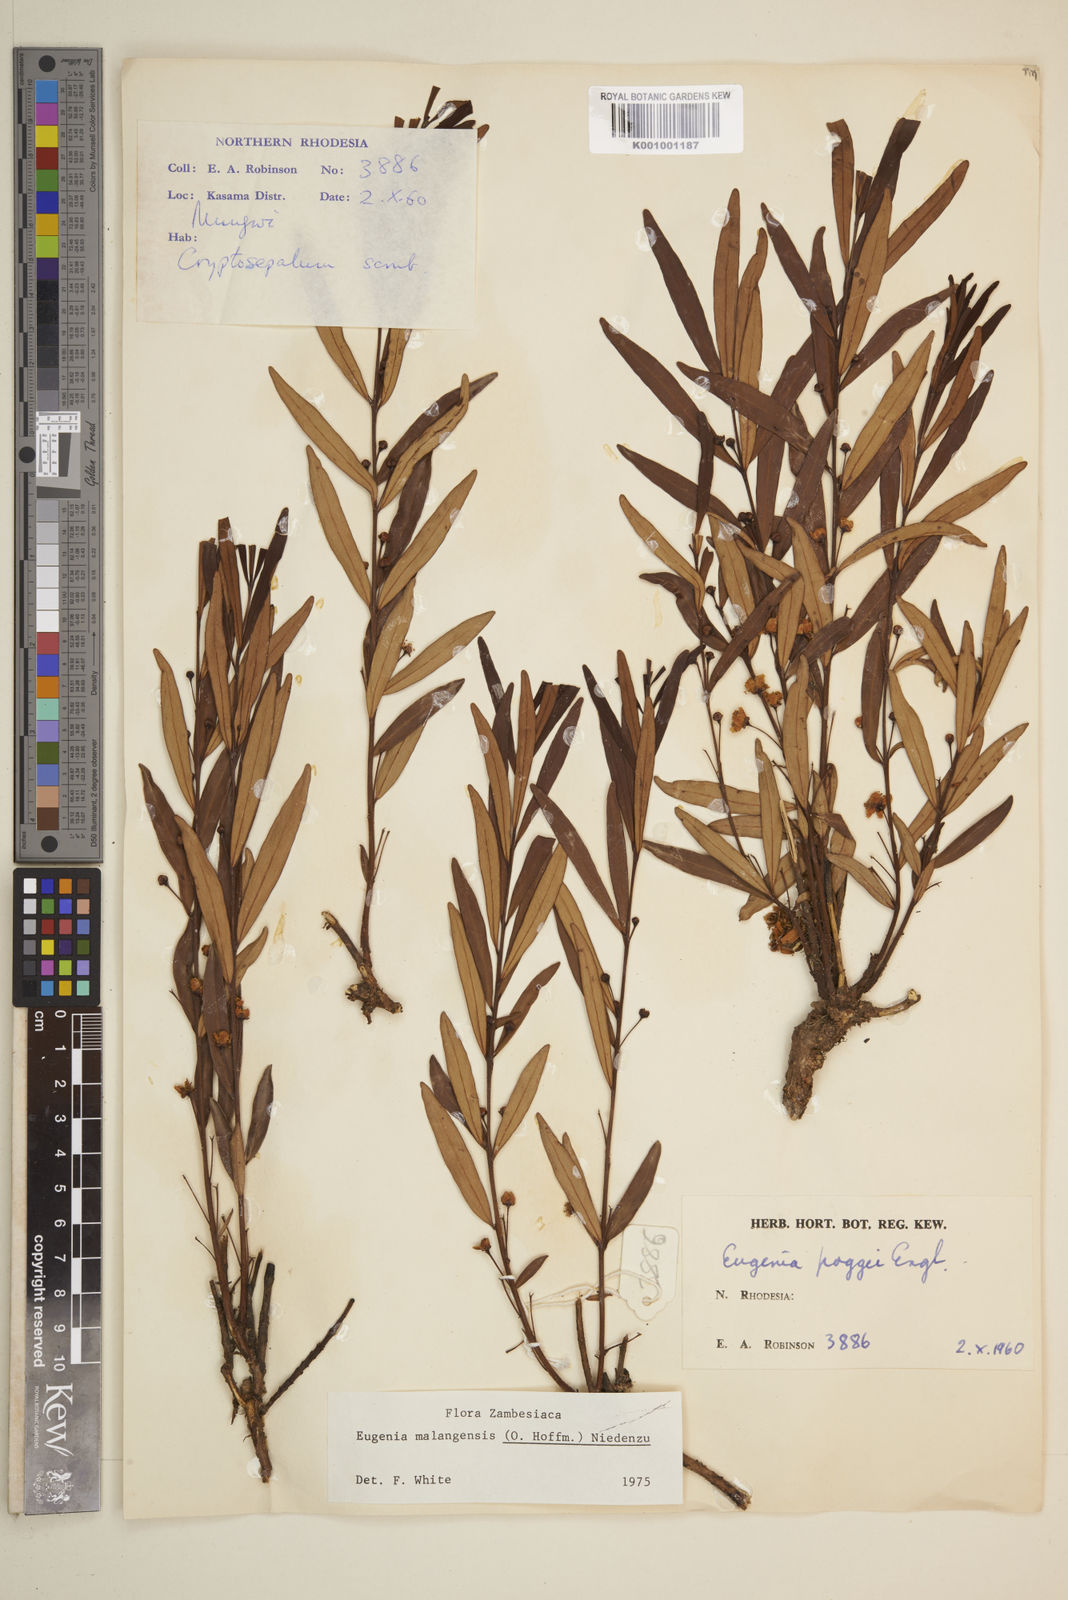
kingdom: Plantae
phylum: Tracheophyta
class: Magnoliopsida
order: Myrtales
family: Myrtaceae
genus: Eugenia
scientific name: Eugenia malangensis
